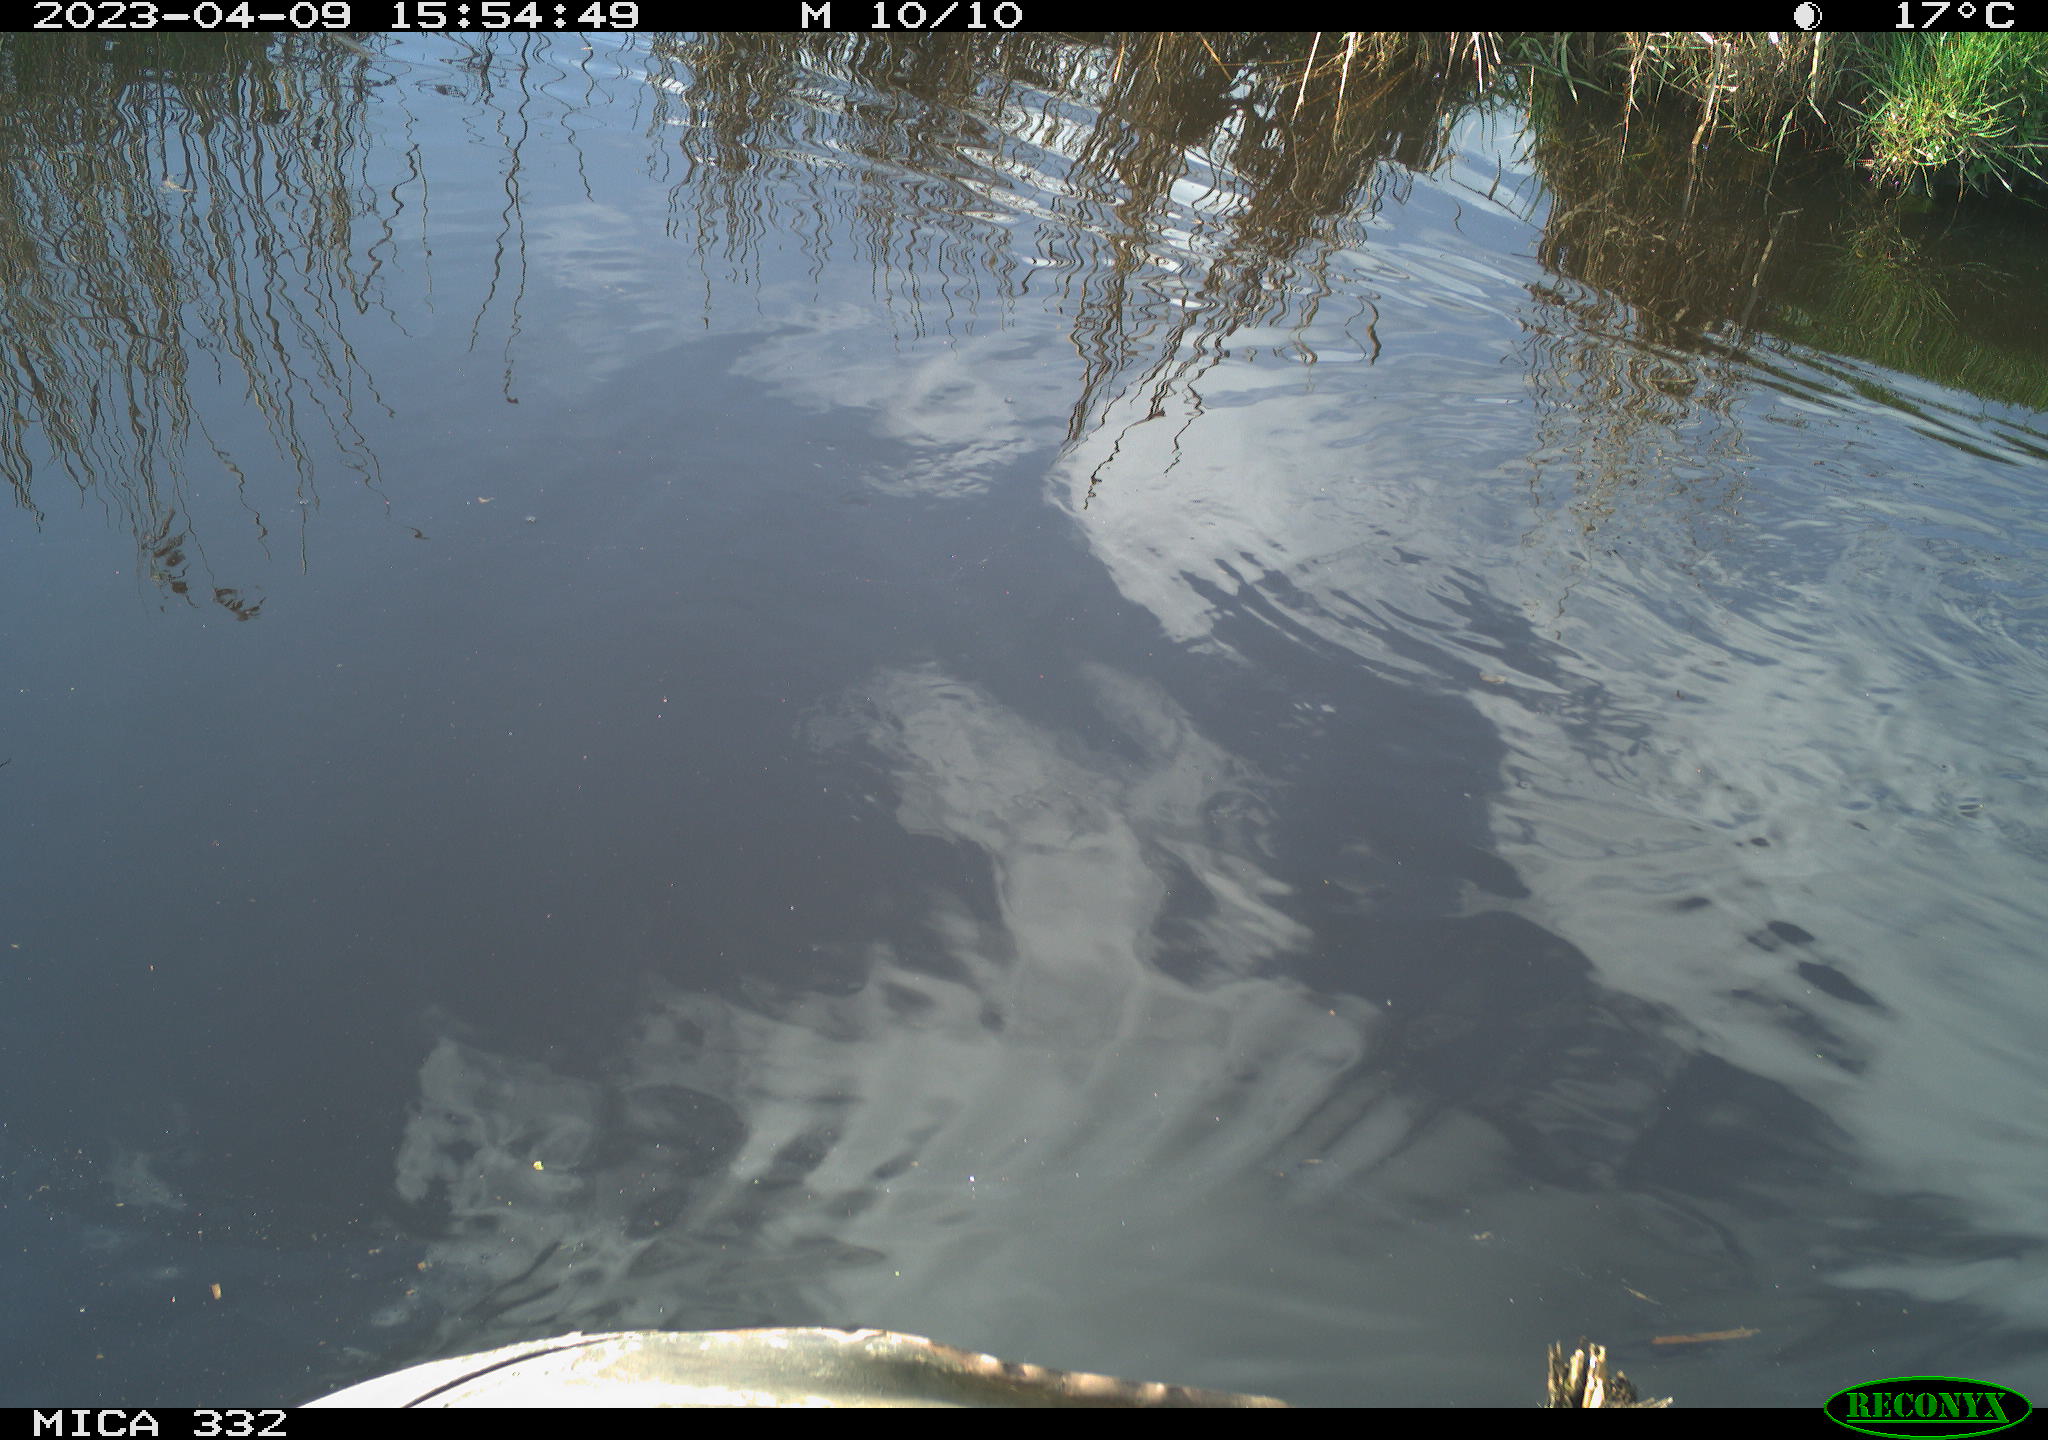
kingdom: Animalia
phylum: Chordata
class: Aves
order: Anseriformes
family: Anatidae
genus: Mareca
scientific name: Mareca strepera
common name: Gadwall
